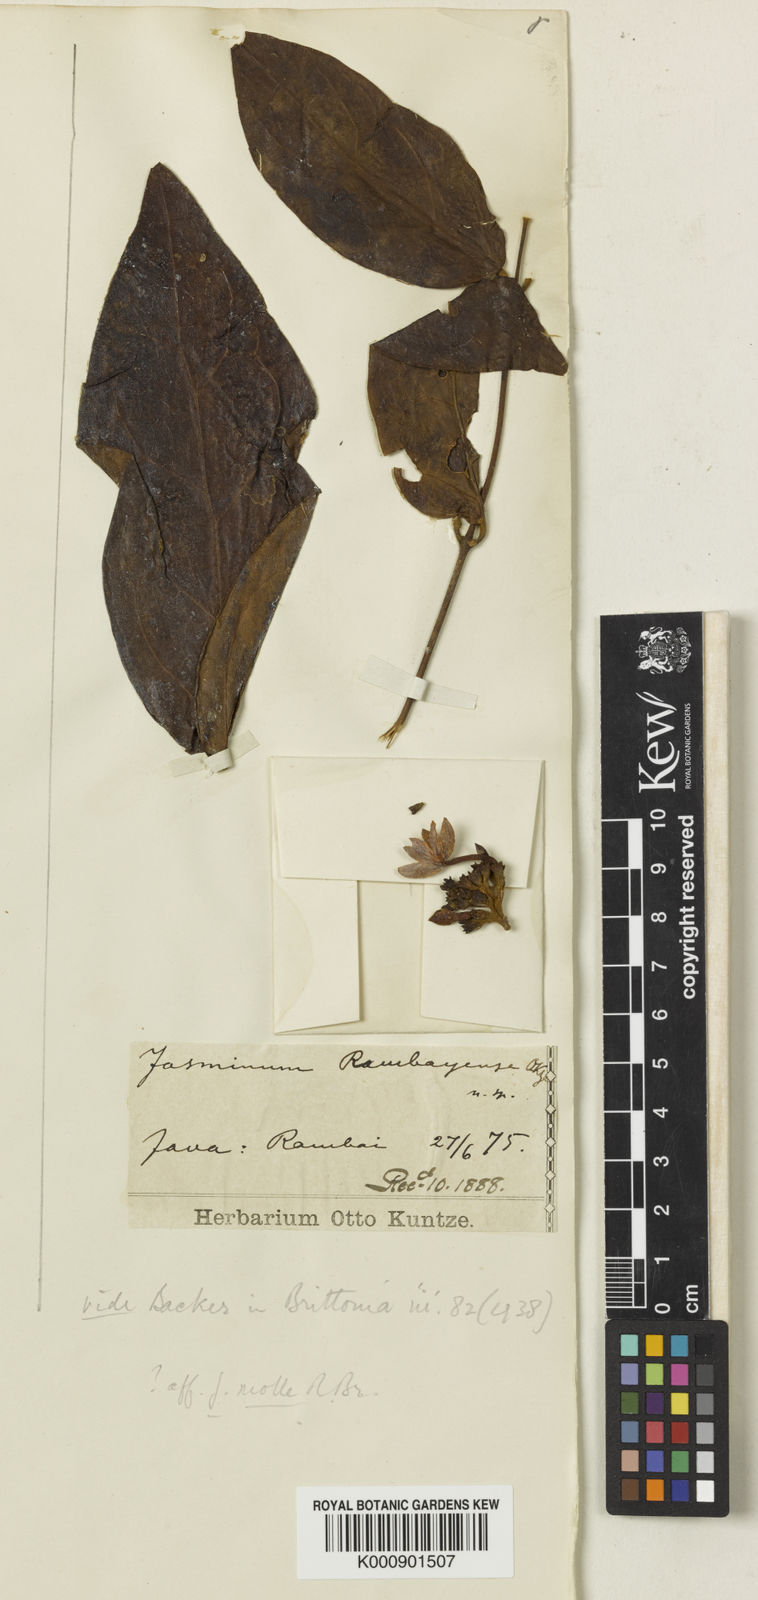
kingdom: Plantae
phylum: Tracheophyta
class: Magnoliopsida
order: Lamiales
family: Oleaceae
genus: Jasminum
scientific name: Jasminum rambayense
